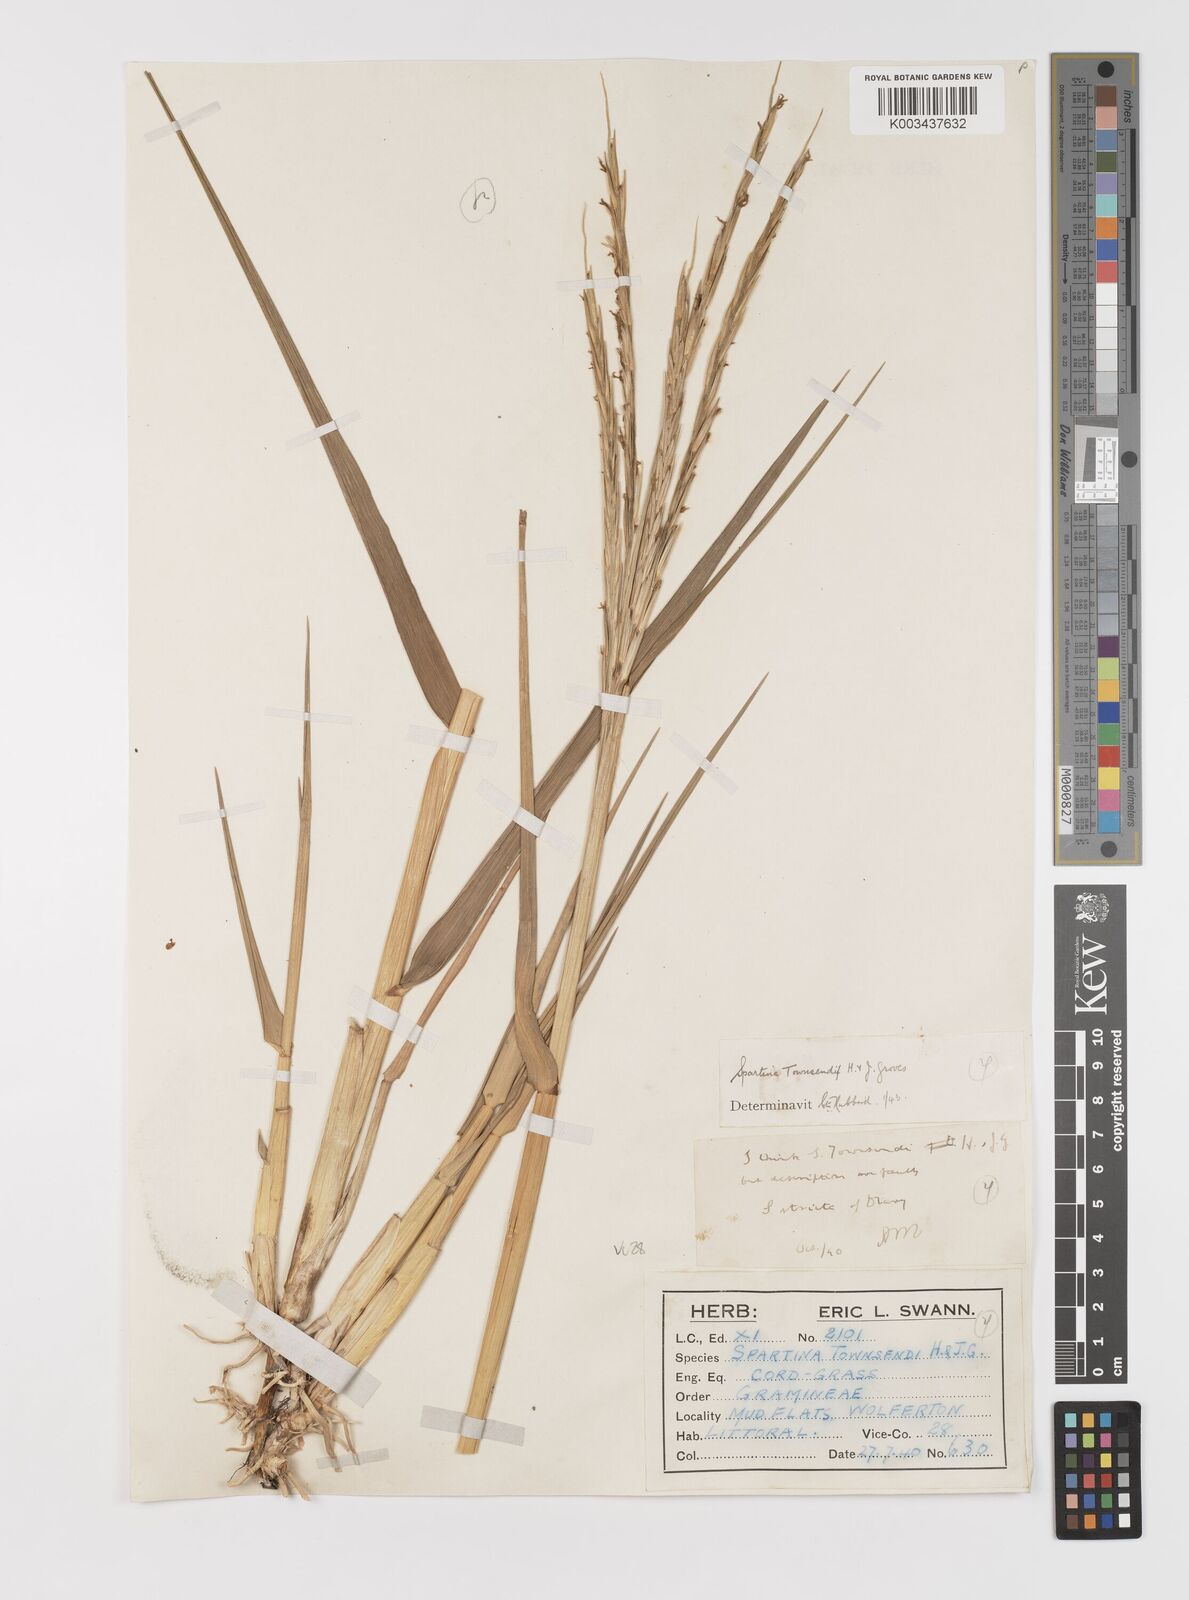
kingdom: Plantae
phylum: Tracheophyta
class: Liliopsida
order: Poales
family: Poaceae
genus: Sporobolus
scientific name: Sporobolus anglicus
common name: English cordgrass
